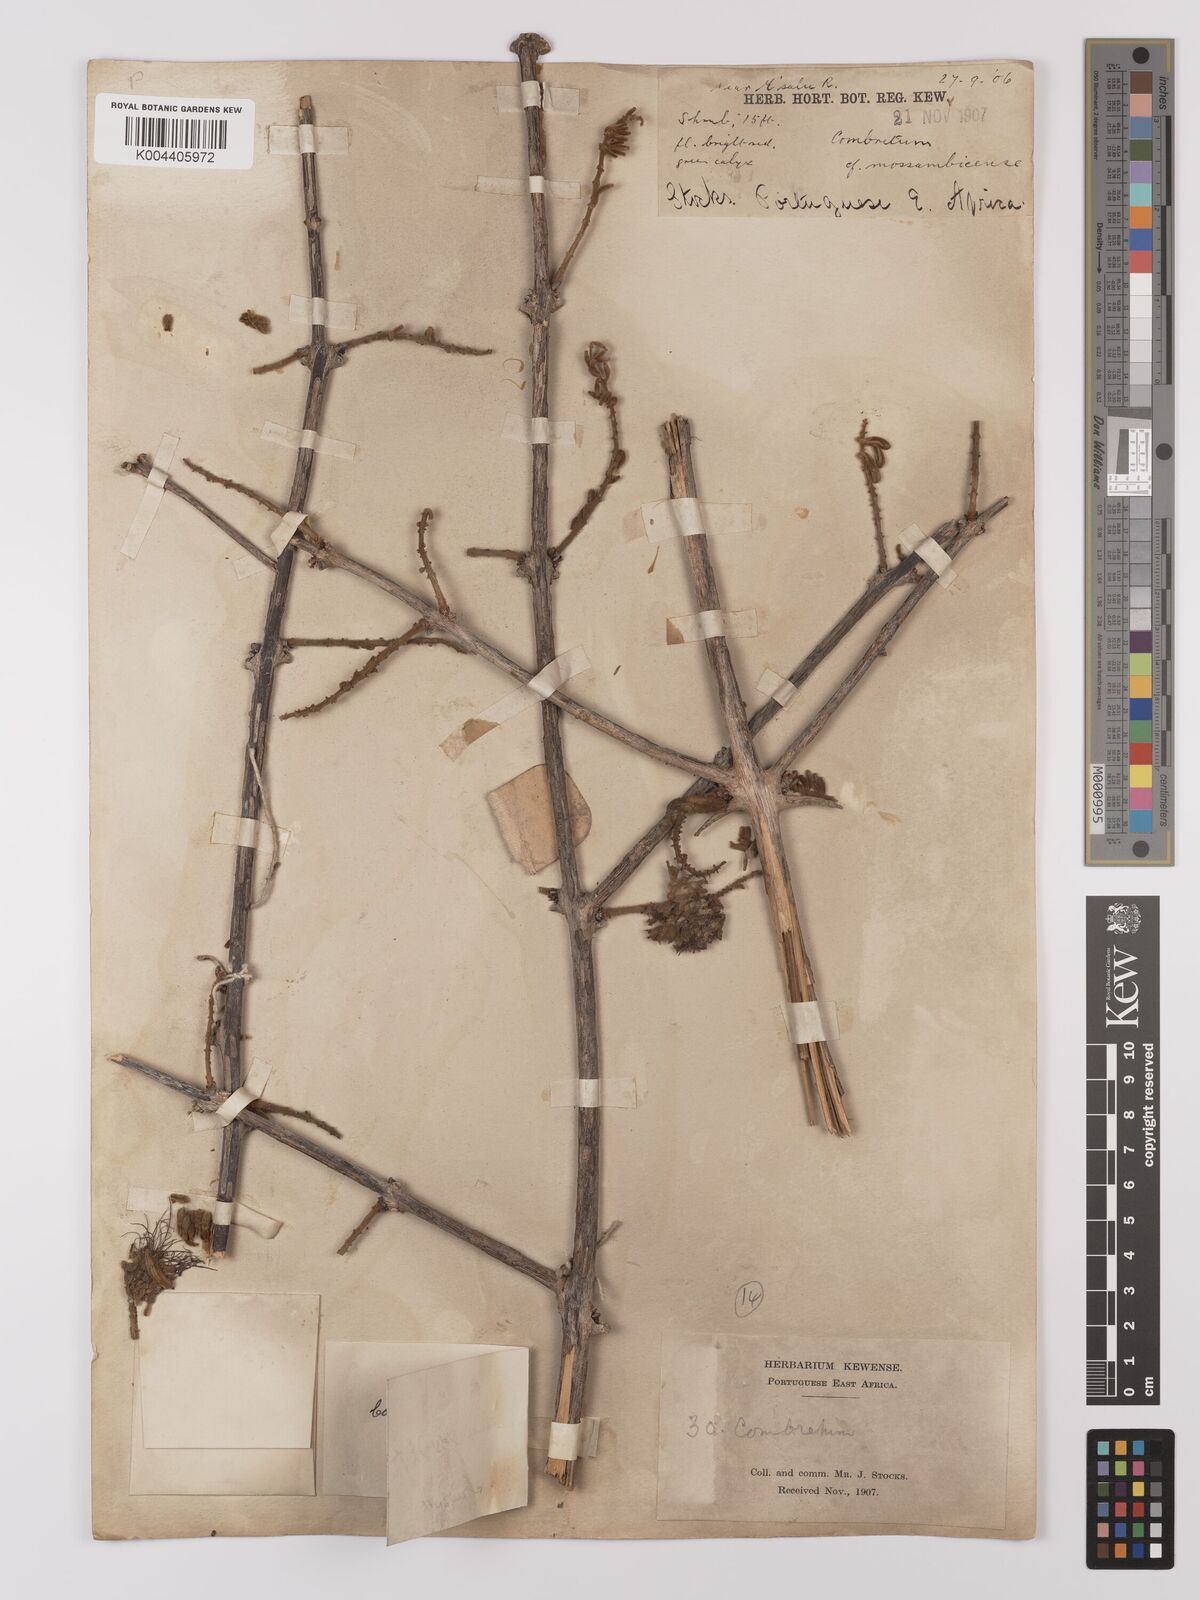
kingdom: Plantae
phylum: Tracheophyta
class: Magnoliopsida
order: Myrtales
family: Combretaceae
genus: Combretum
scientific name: Combretum mossambicense
